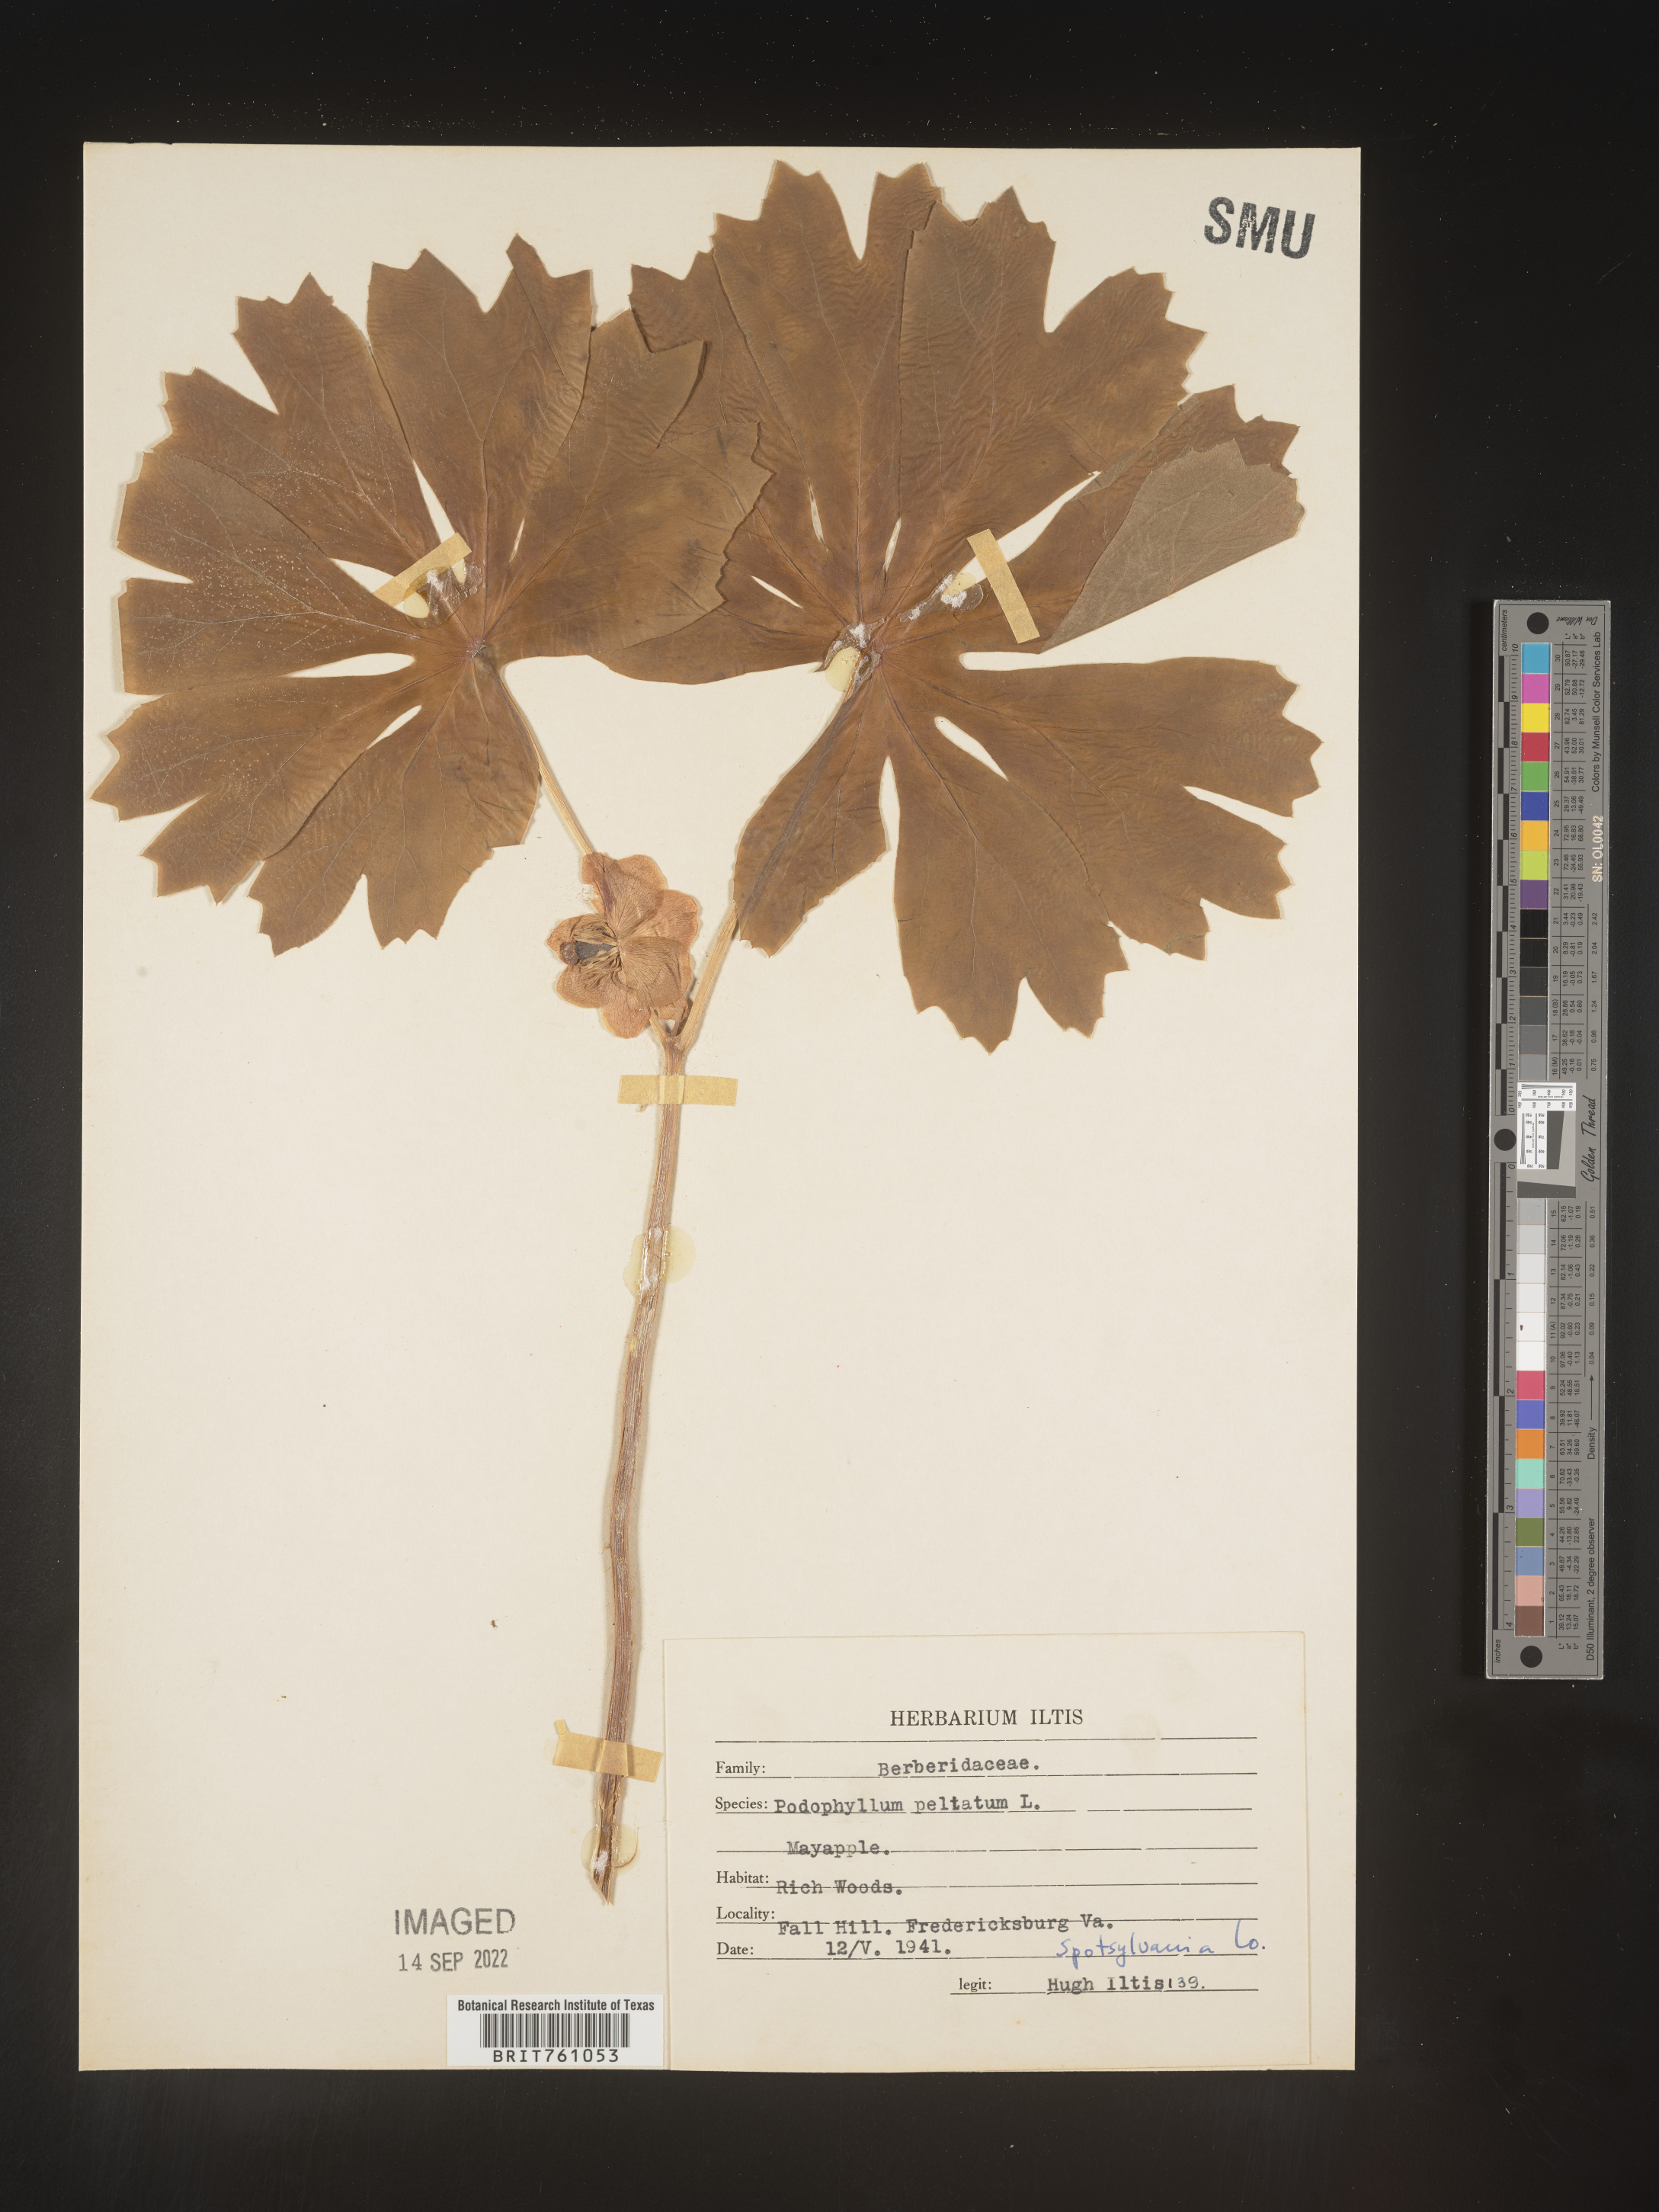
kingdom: Plantae
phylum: Tracheophyta
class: Magnoliopsida
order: Ranunculales
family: Berberidaceae
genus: Podophyllum
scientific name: Podophyllum peltatum
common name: Wild mandrake
